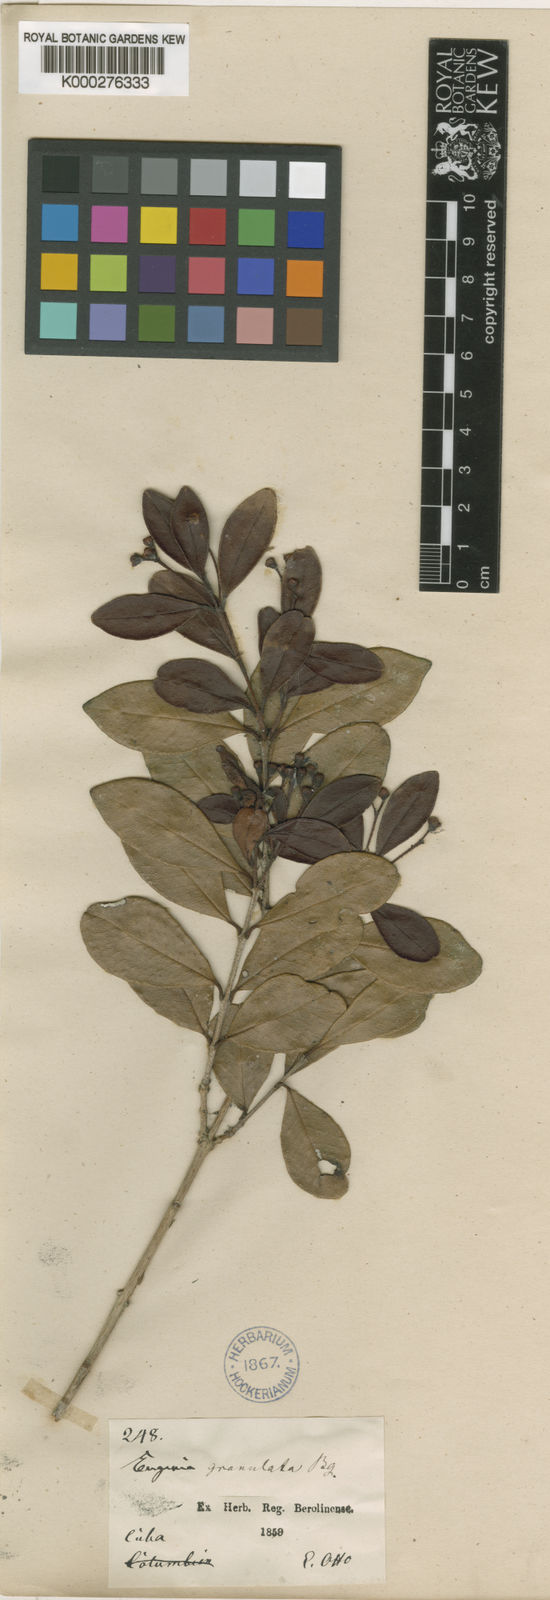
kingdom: Plantae
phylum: Tracheophyta
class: Magnoliopsida
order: Myrtales
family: Myrtaceae
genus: Myrcianthes
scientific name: Myrcianthes fragrans
